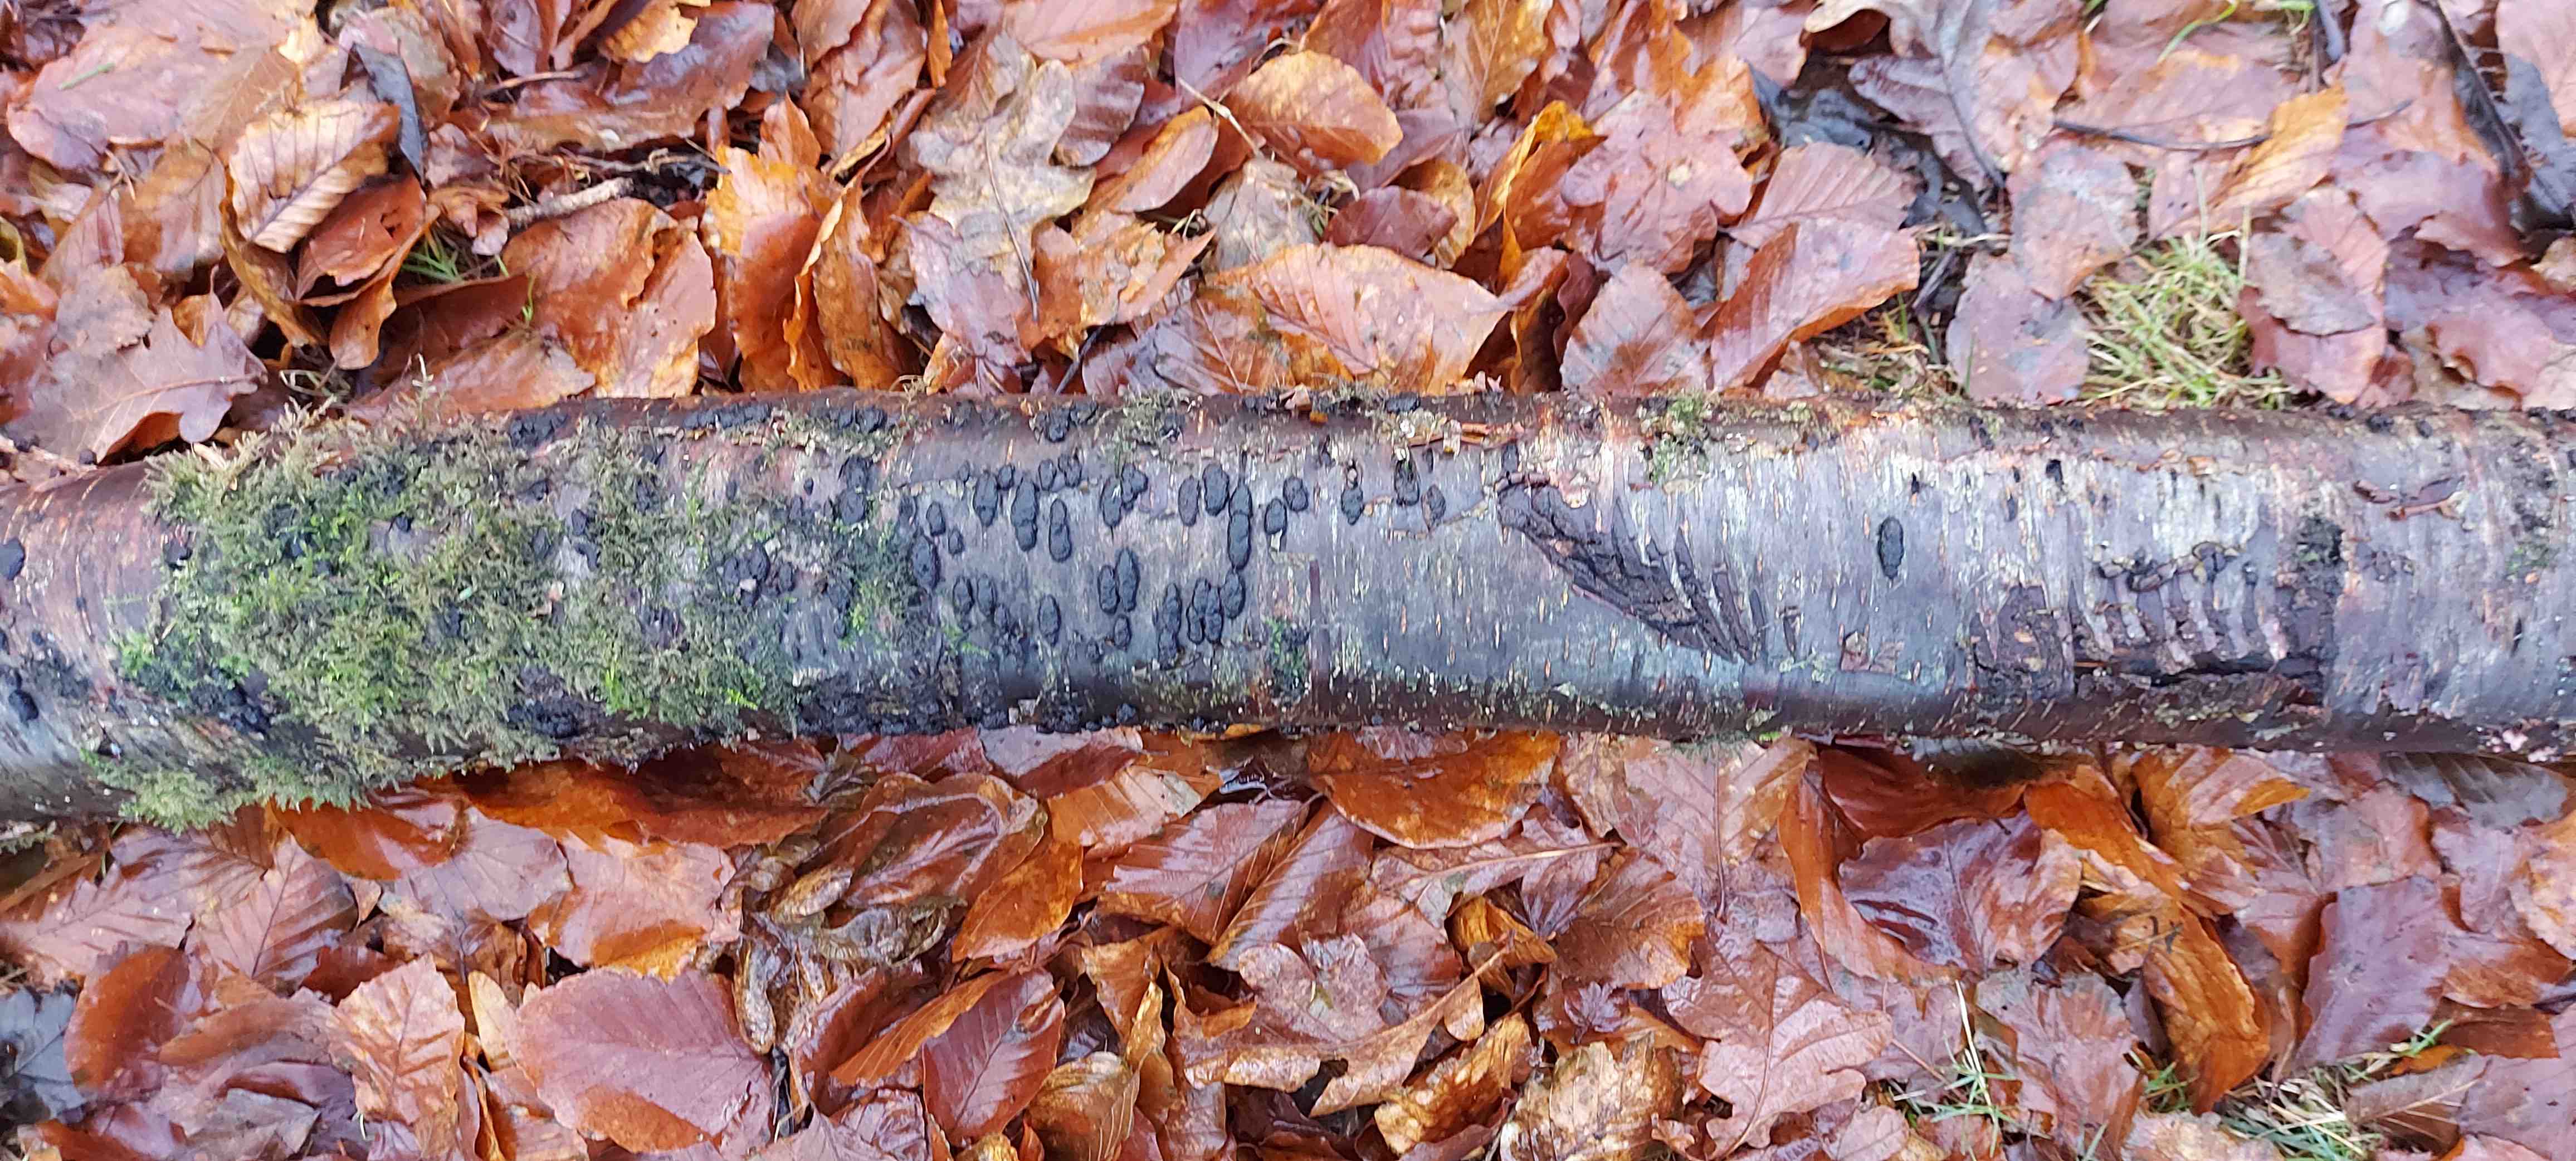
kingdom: Fungi
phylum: Ascomycota
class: Sordariomycetes
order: Xylariales
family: Hypoxylaceae
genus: Jackrogersella
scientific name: Jackrogersella multiformis
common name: foranderlig kulbær
